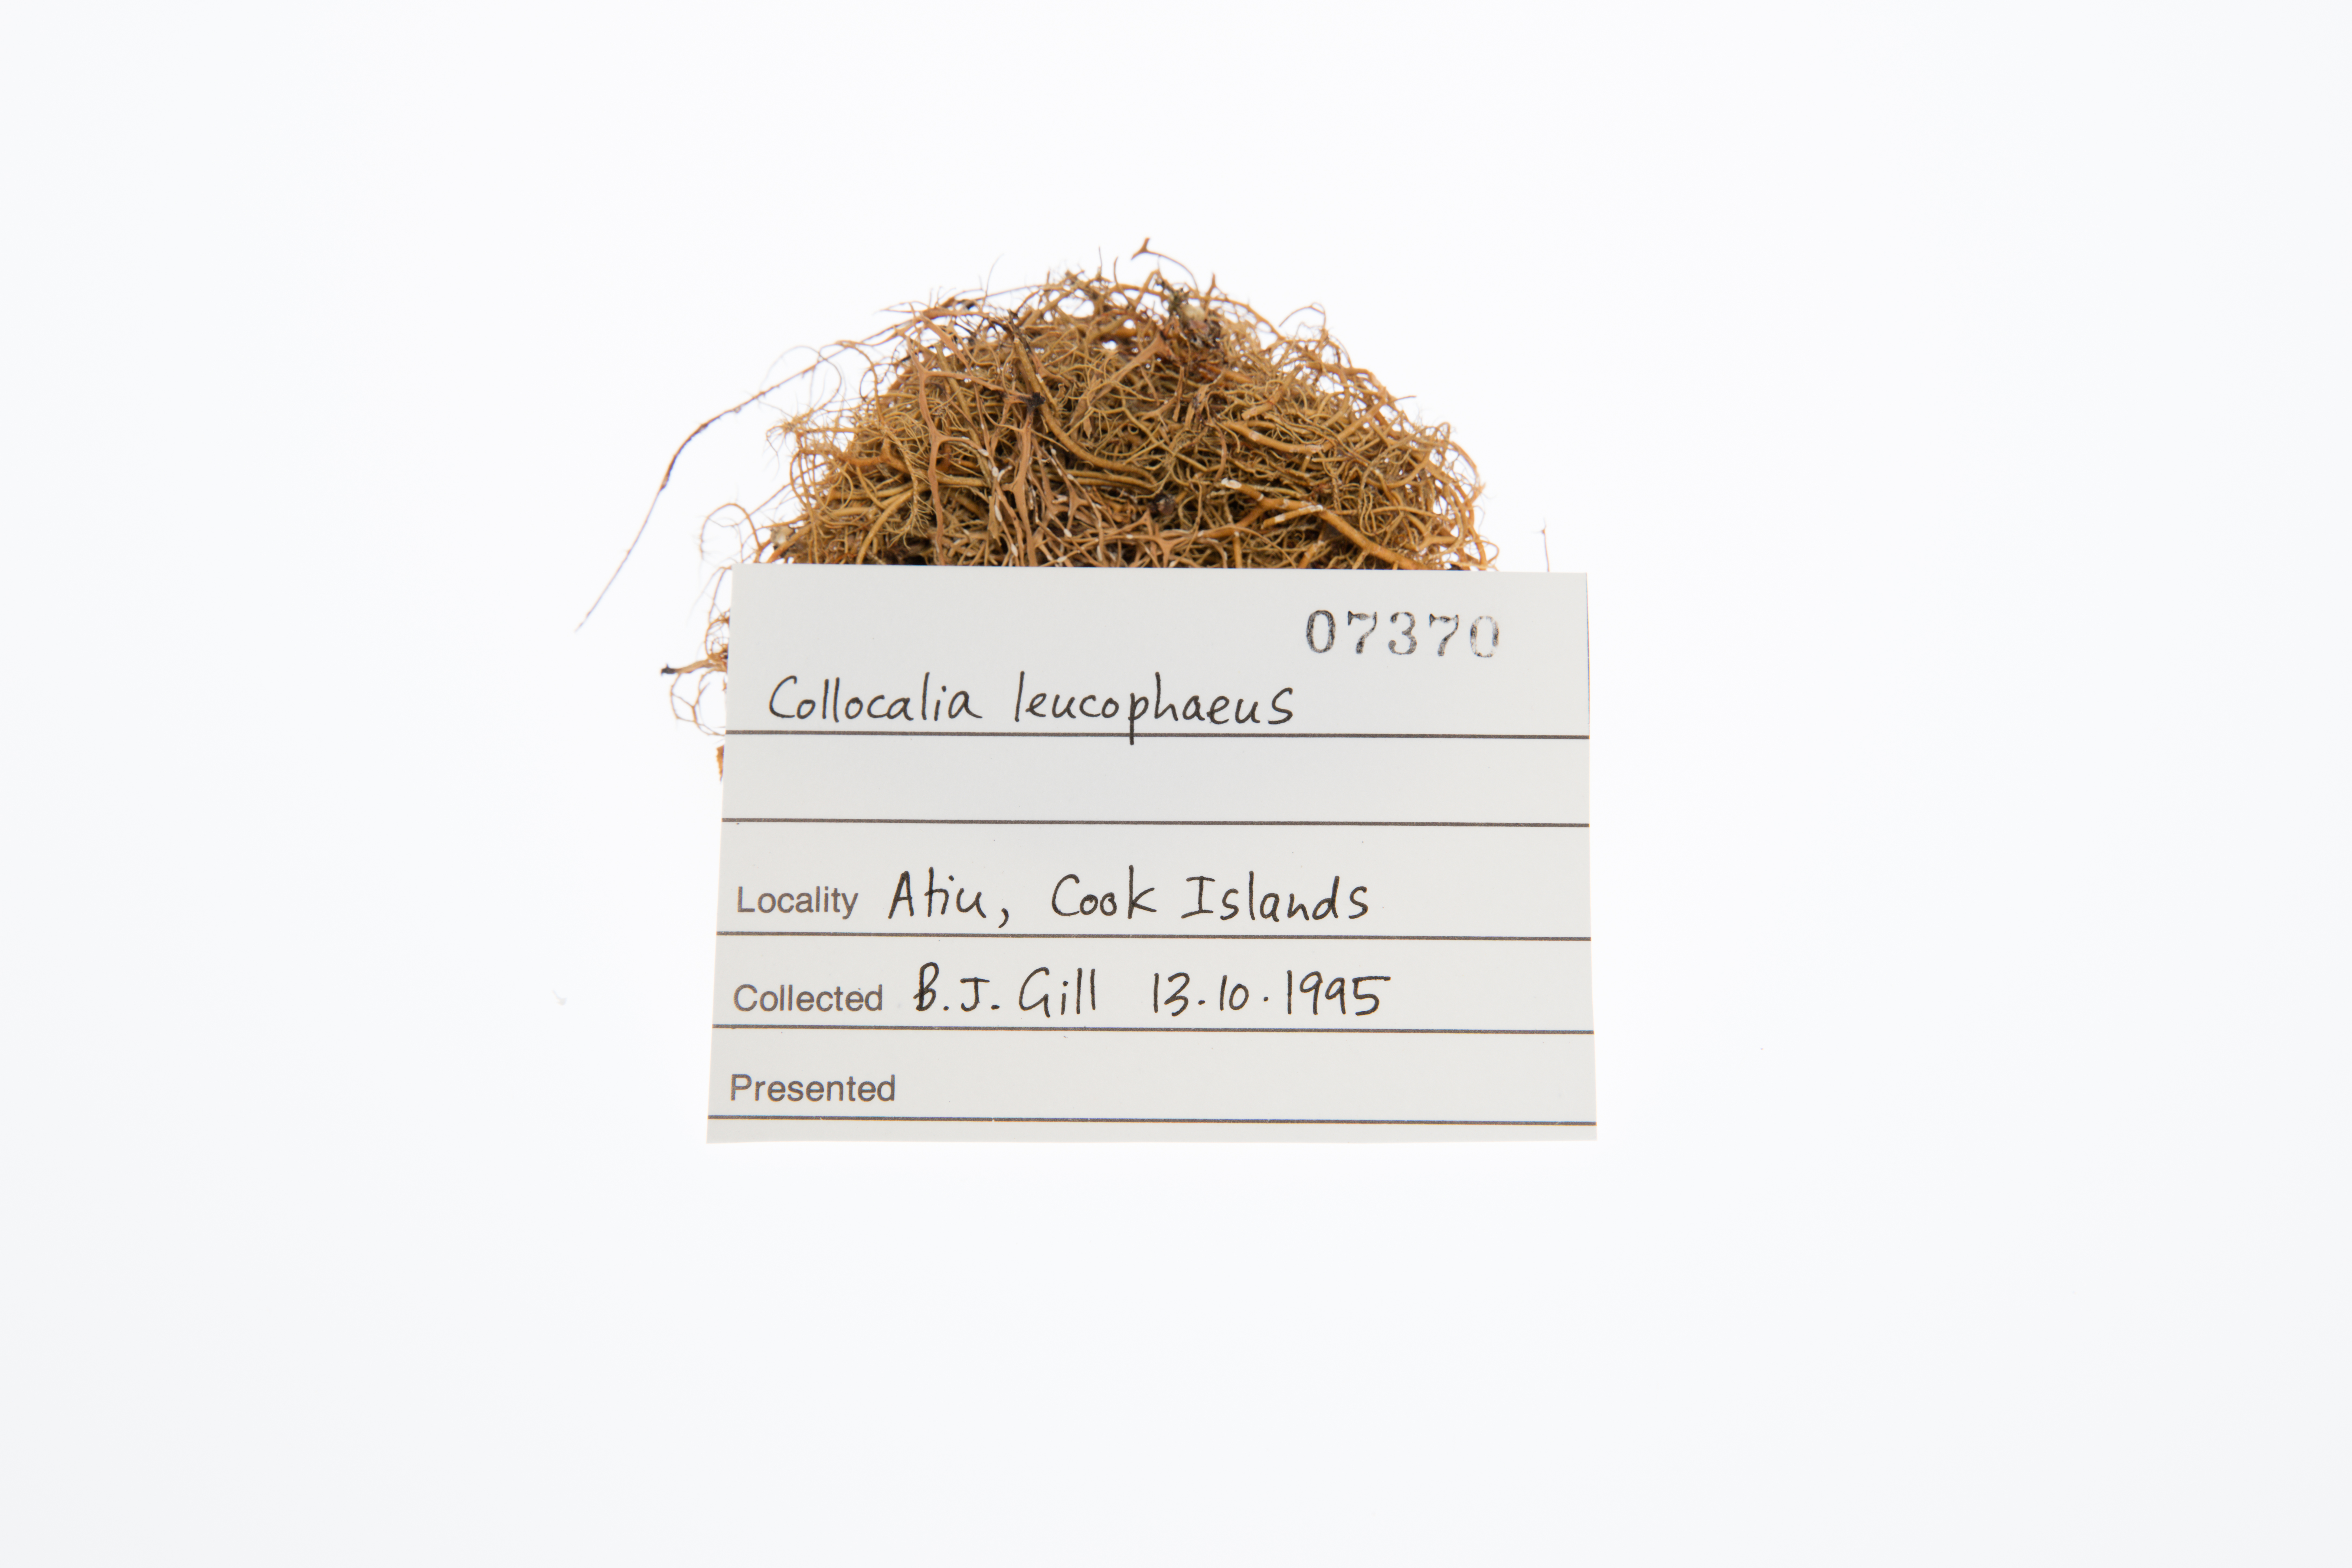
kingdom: Animalia
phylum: Chordata
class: Aves
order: Apodiformes
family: Apodidae
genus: Aerodramus
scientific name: Aerodramus leucophaeus
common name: Tahiti swiftlet
